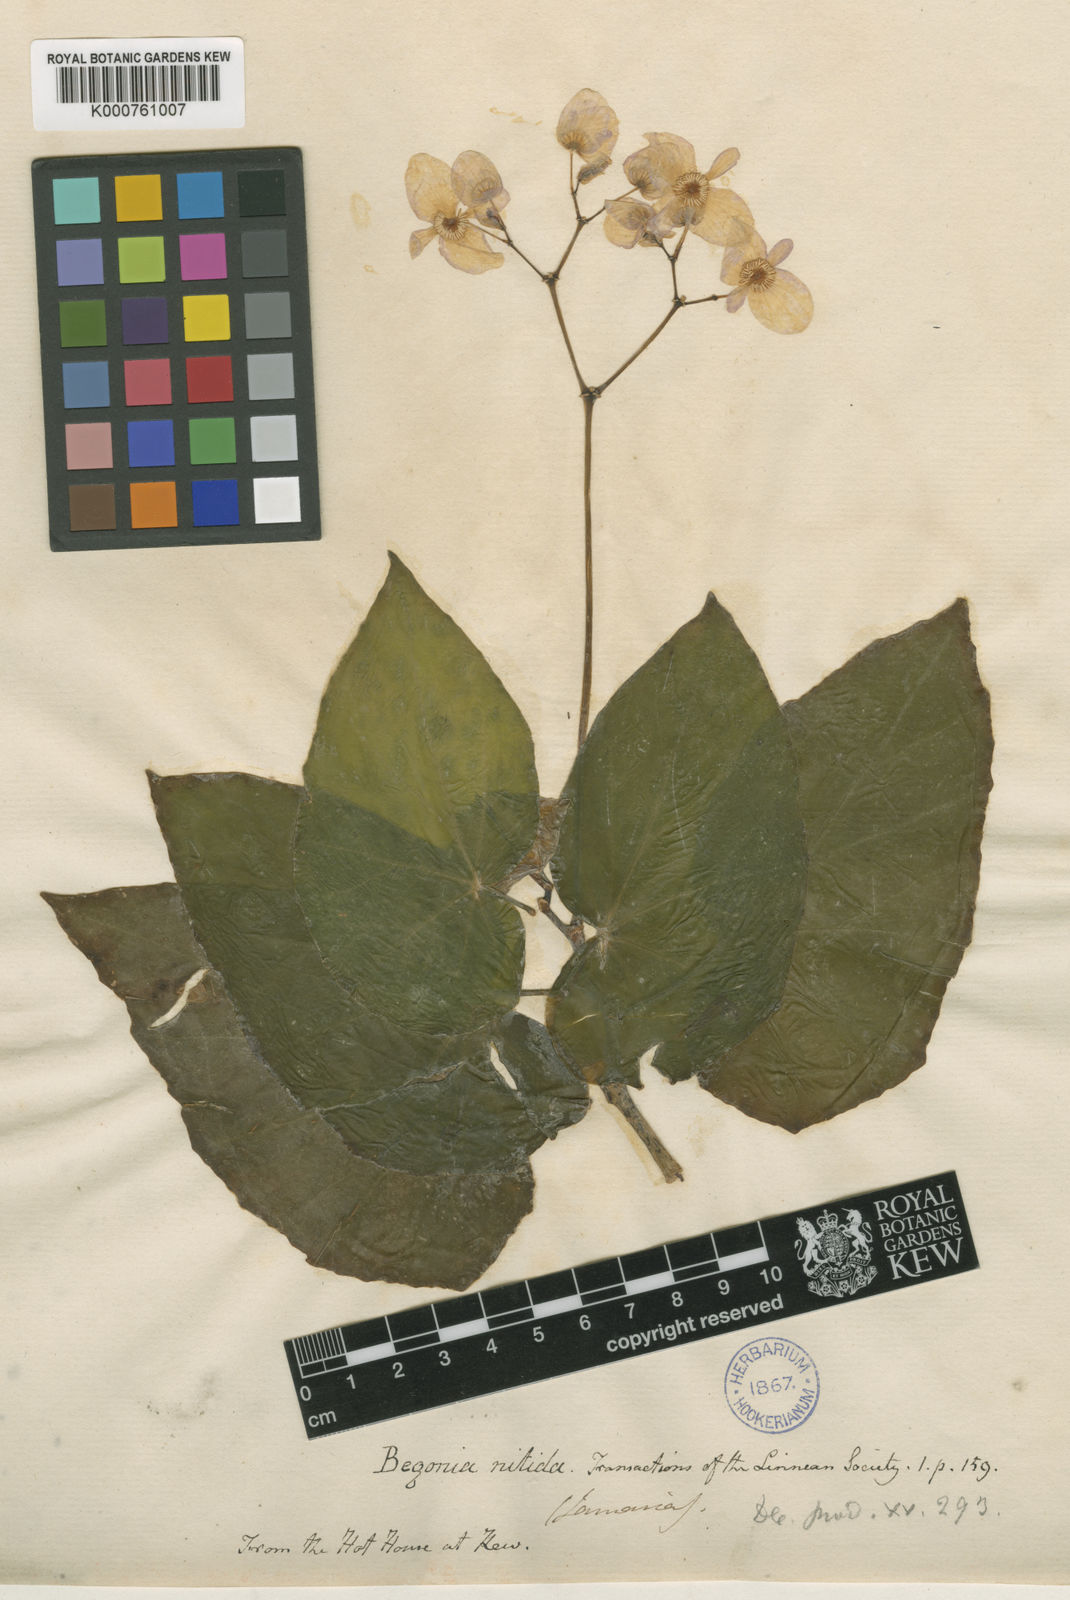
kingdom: Plantae
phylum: Tracheophyta
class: Magnoliopsida
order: Cucurbitales
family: Begoniaceae
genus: Begonia
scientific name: Begonia
